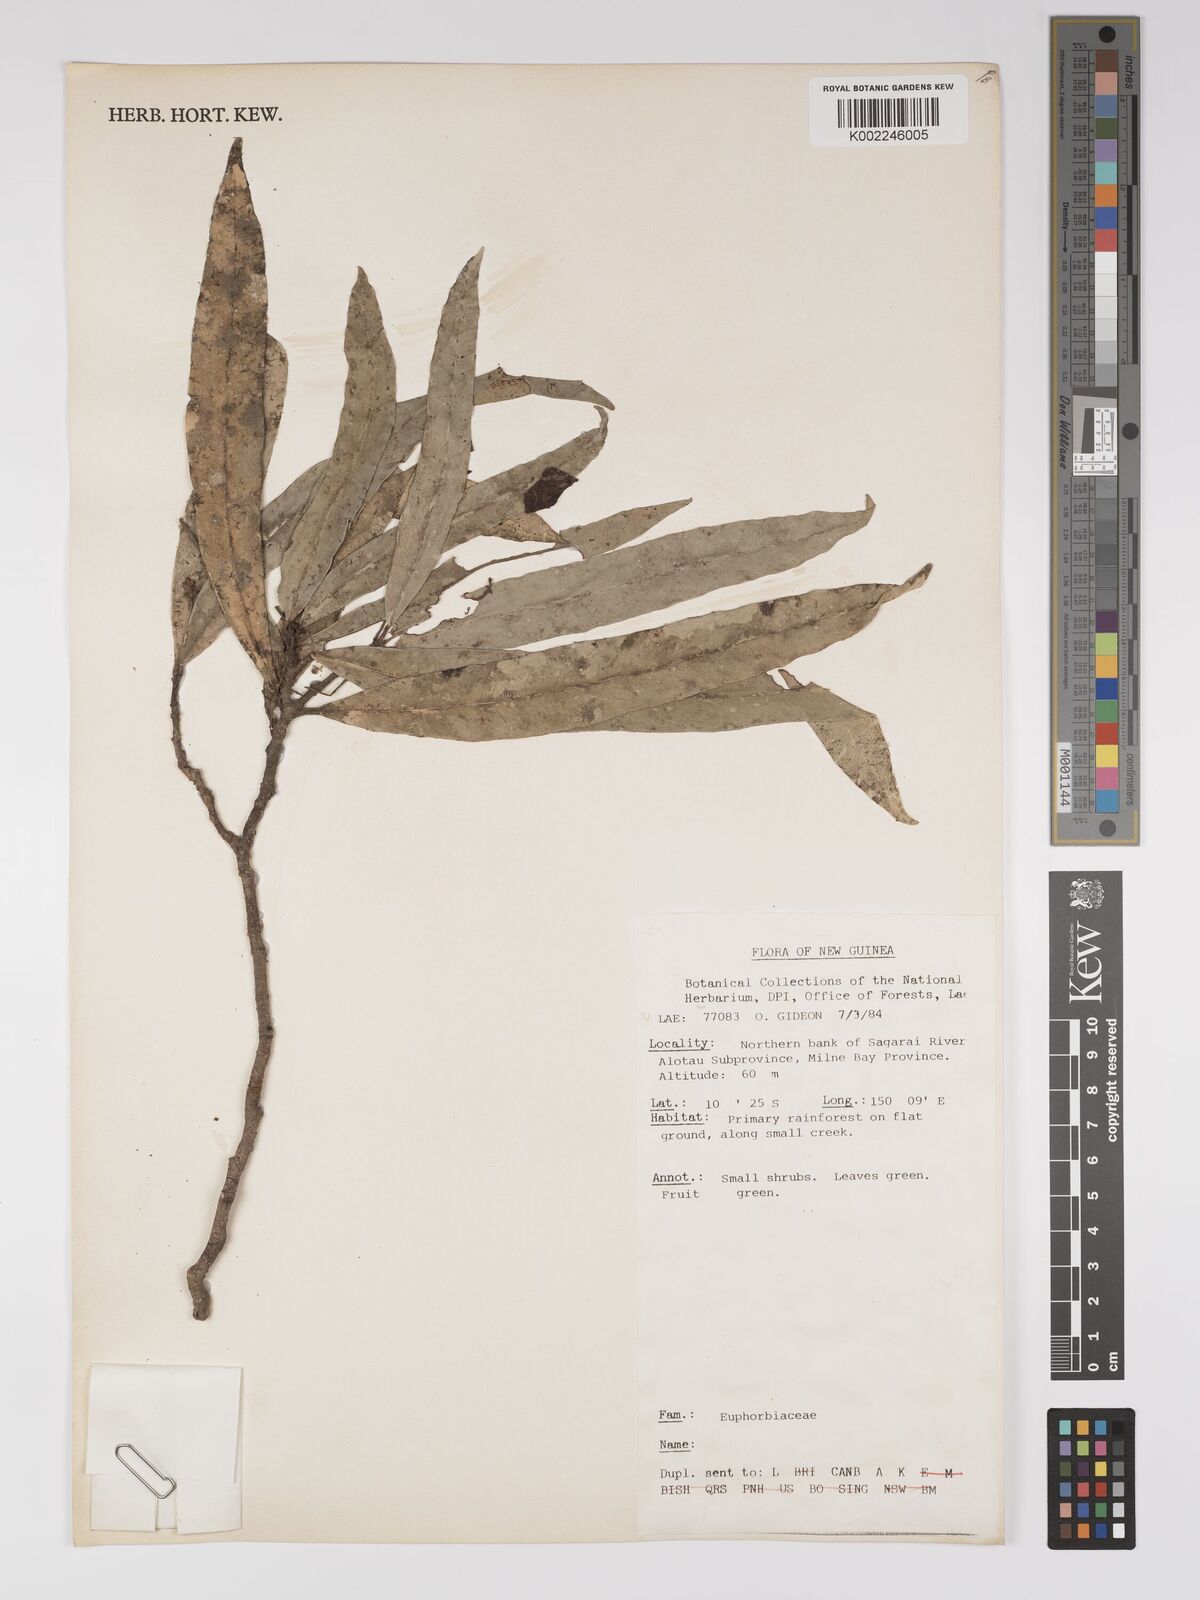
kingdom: Plantae
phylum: Tracheophyta
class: Magnoliopsida
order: Malpighiales
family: Euphorbiaceae
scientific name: Euphorbiaceae
